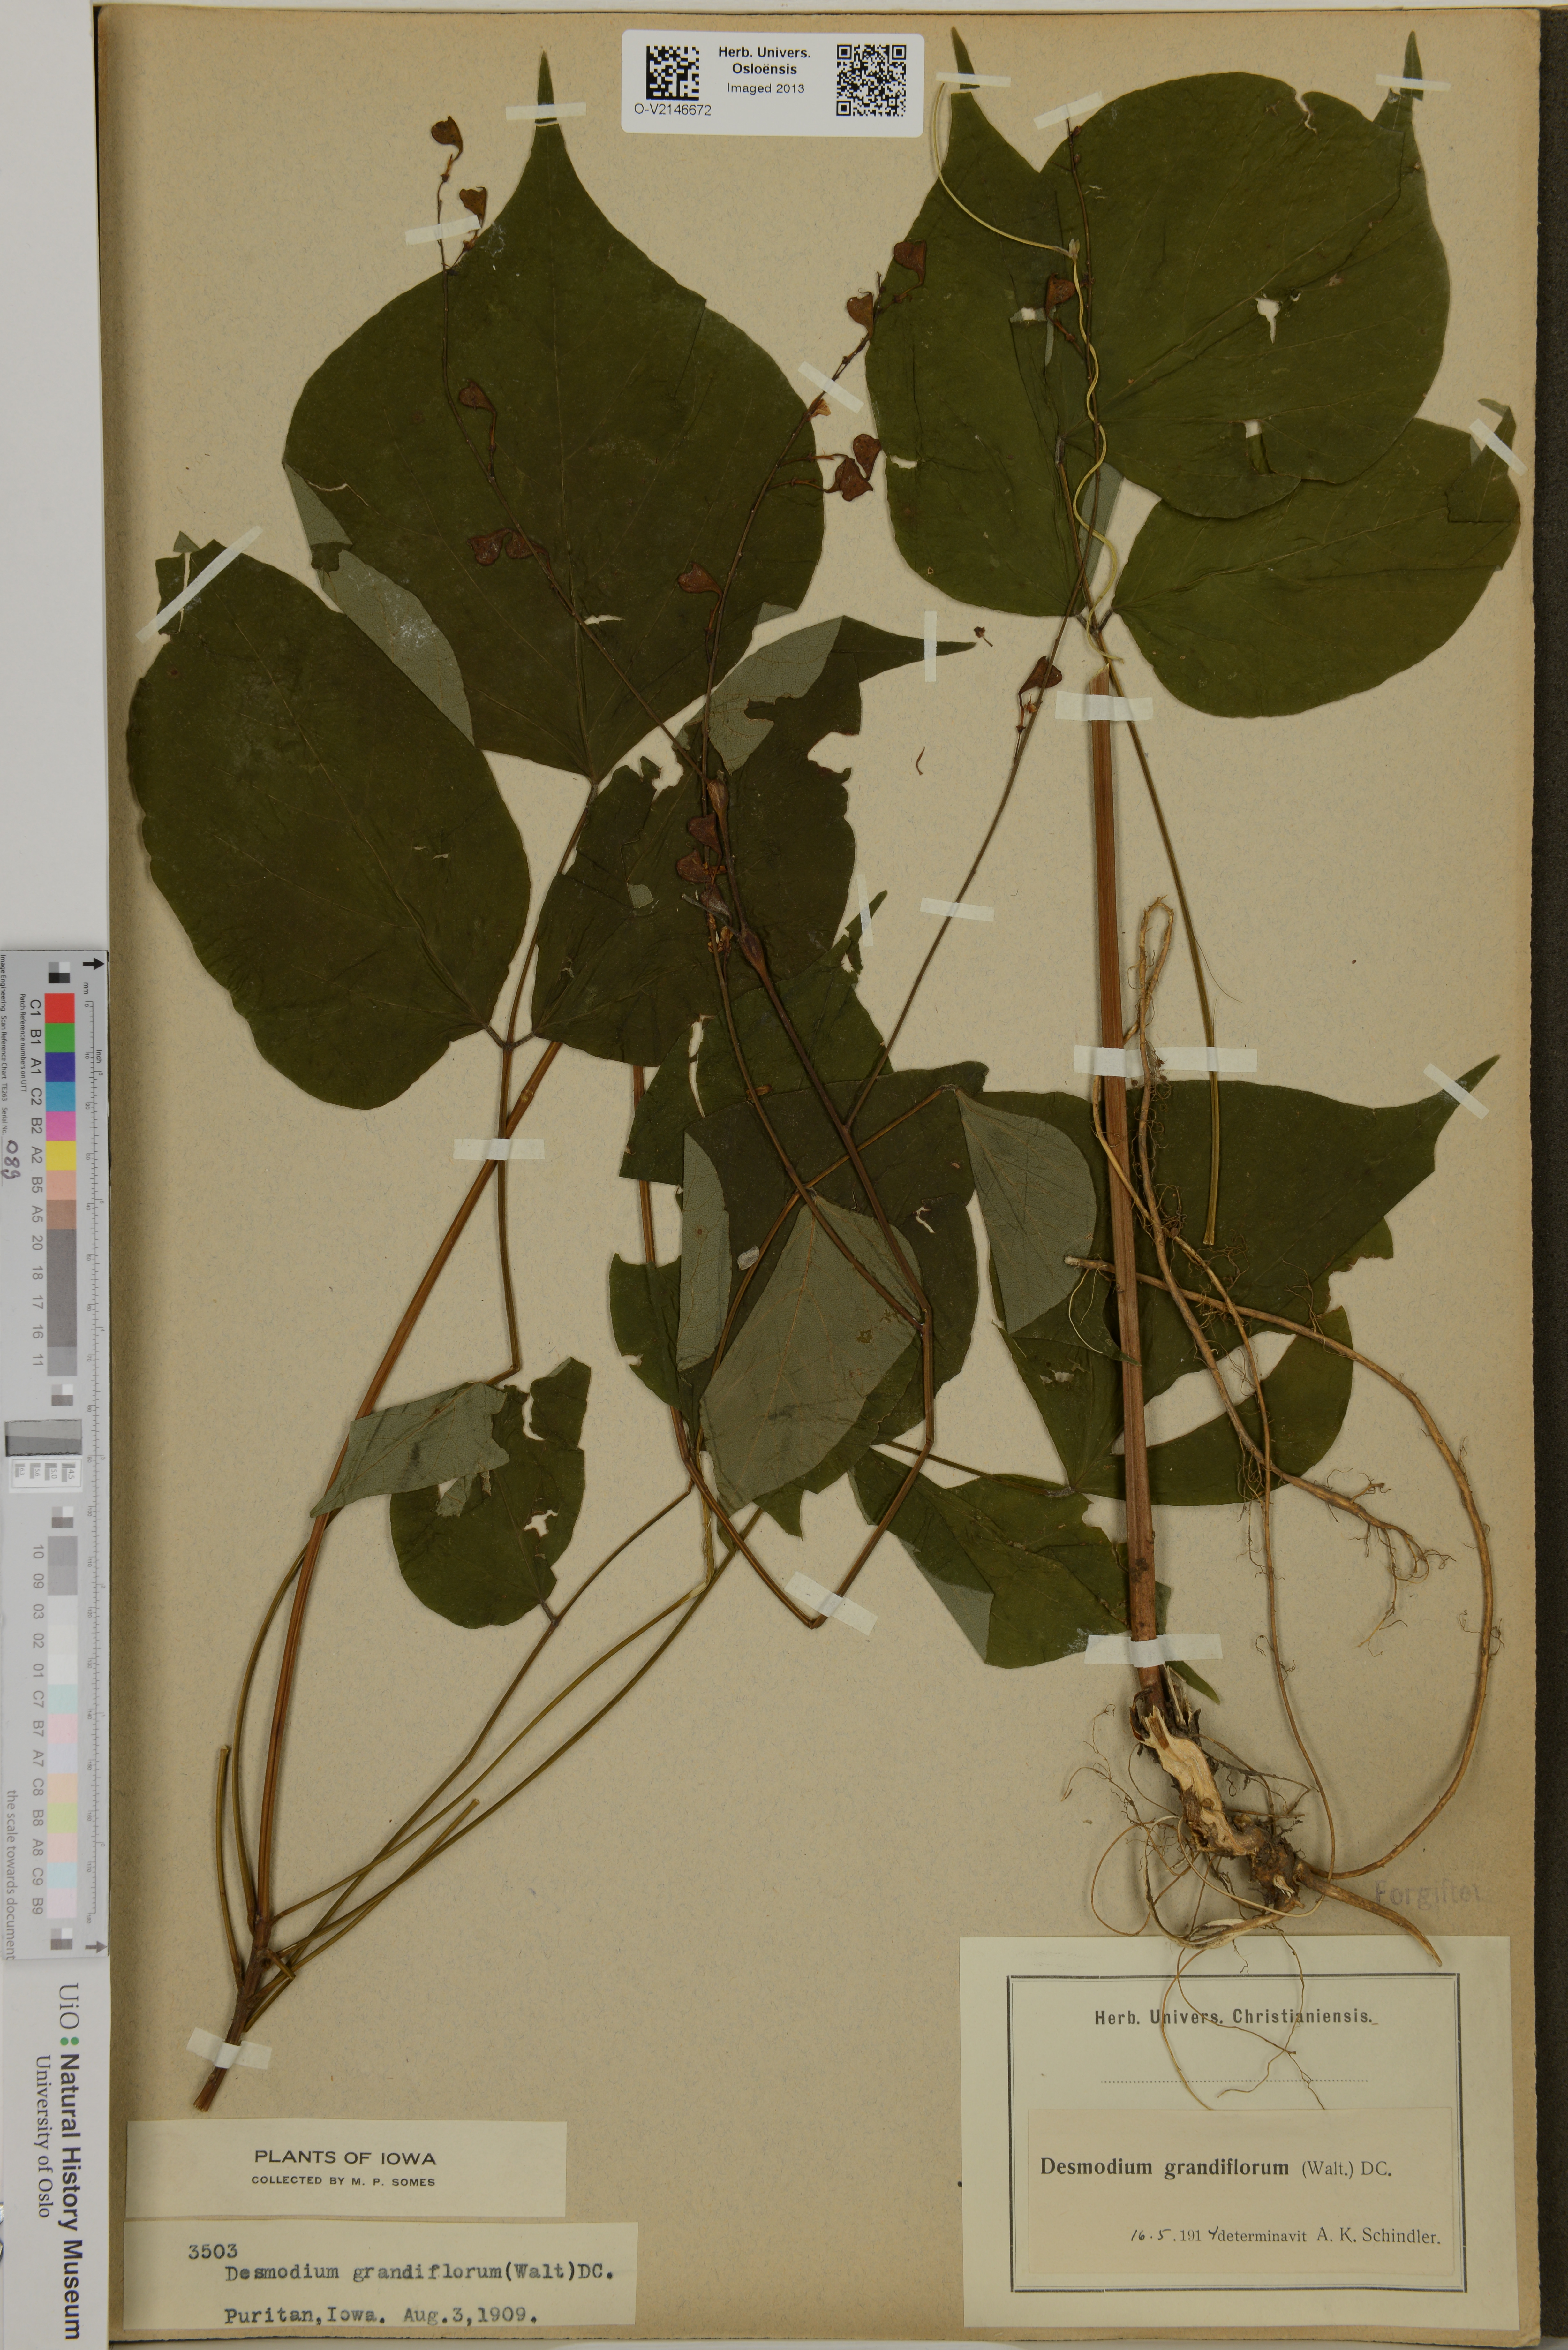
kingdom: Plantae
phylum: Tracheophyta
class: Magnoliopsida
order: Fabales
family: Fabaceae
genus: Hylodesmum
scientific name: Hylodesmum glutinosum
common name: Clustered-leaved tick-trefoil
